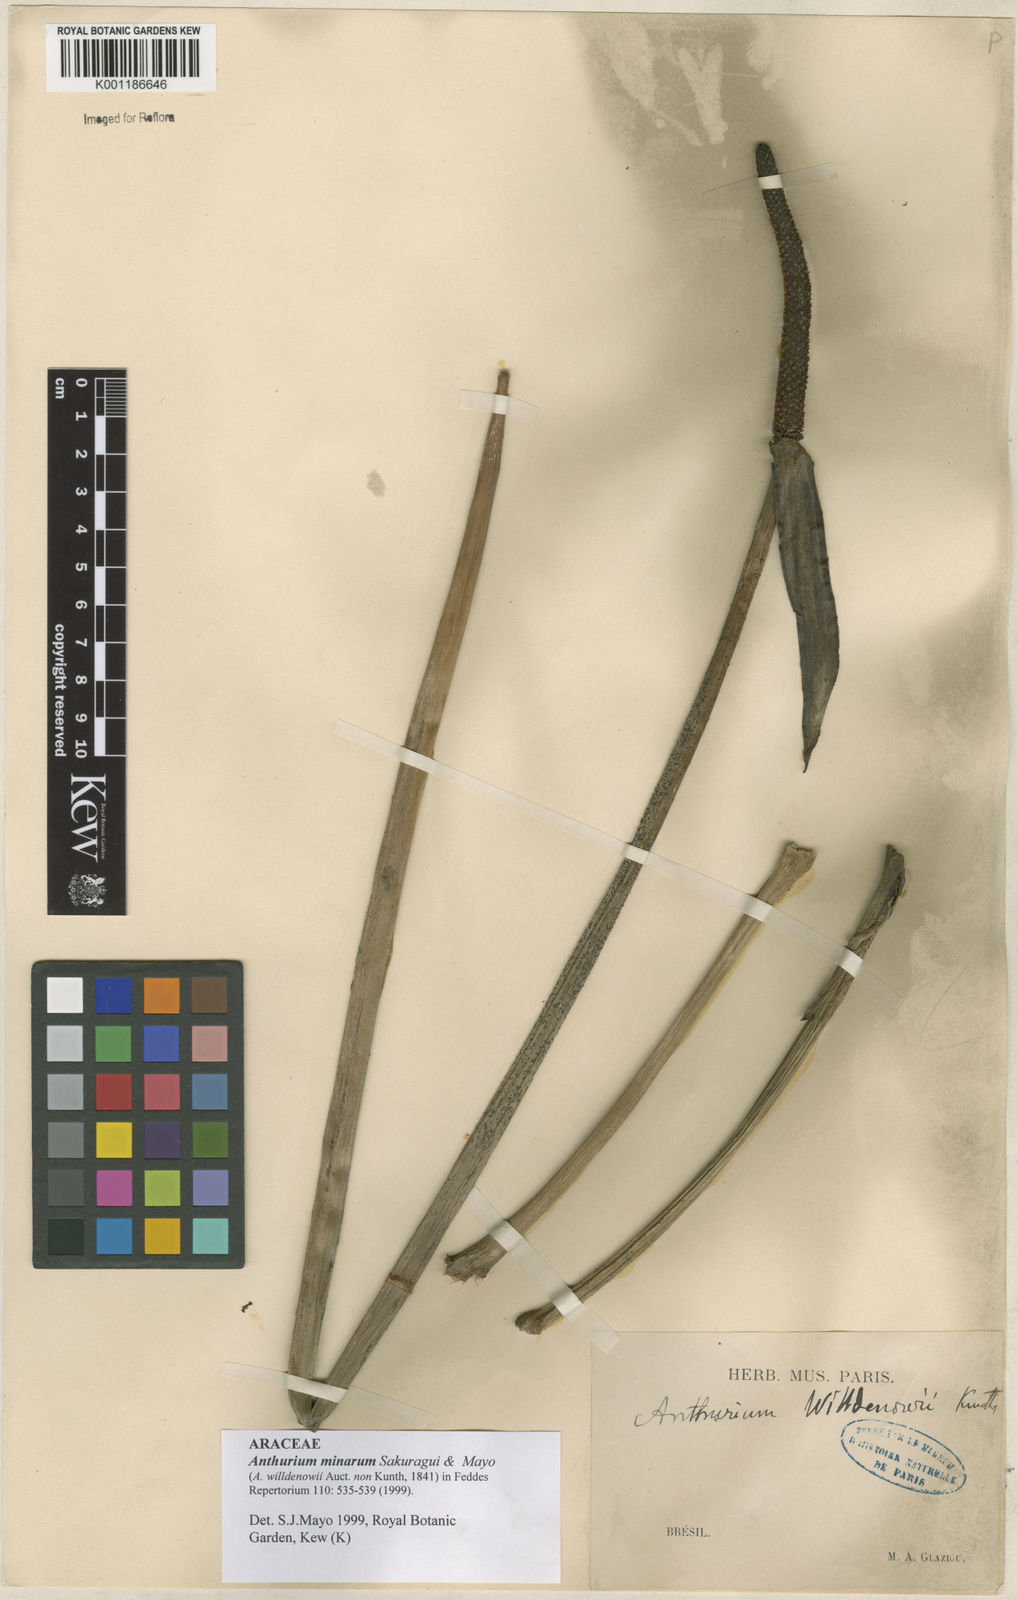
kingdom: Plantae
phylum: Tracheophyta
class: Liliopsida
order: Alismatales
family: Araceae
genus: Anthurium
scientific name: Anthurium minarum
